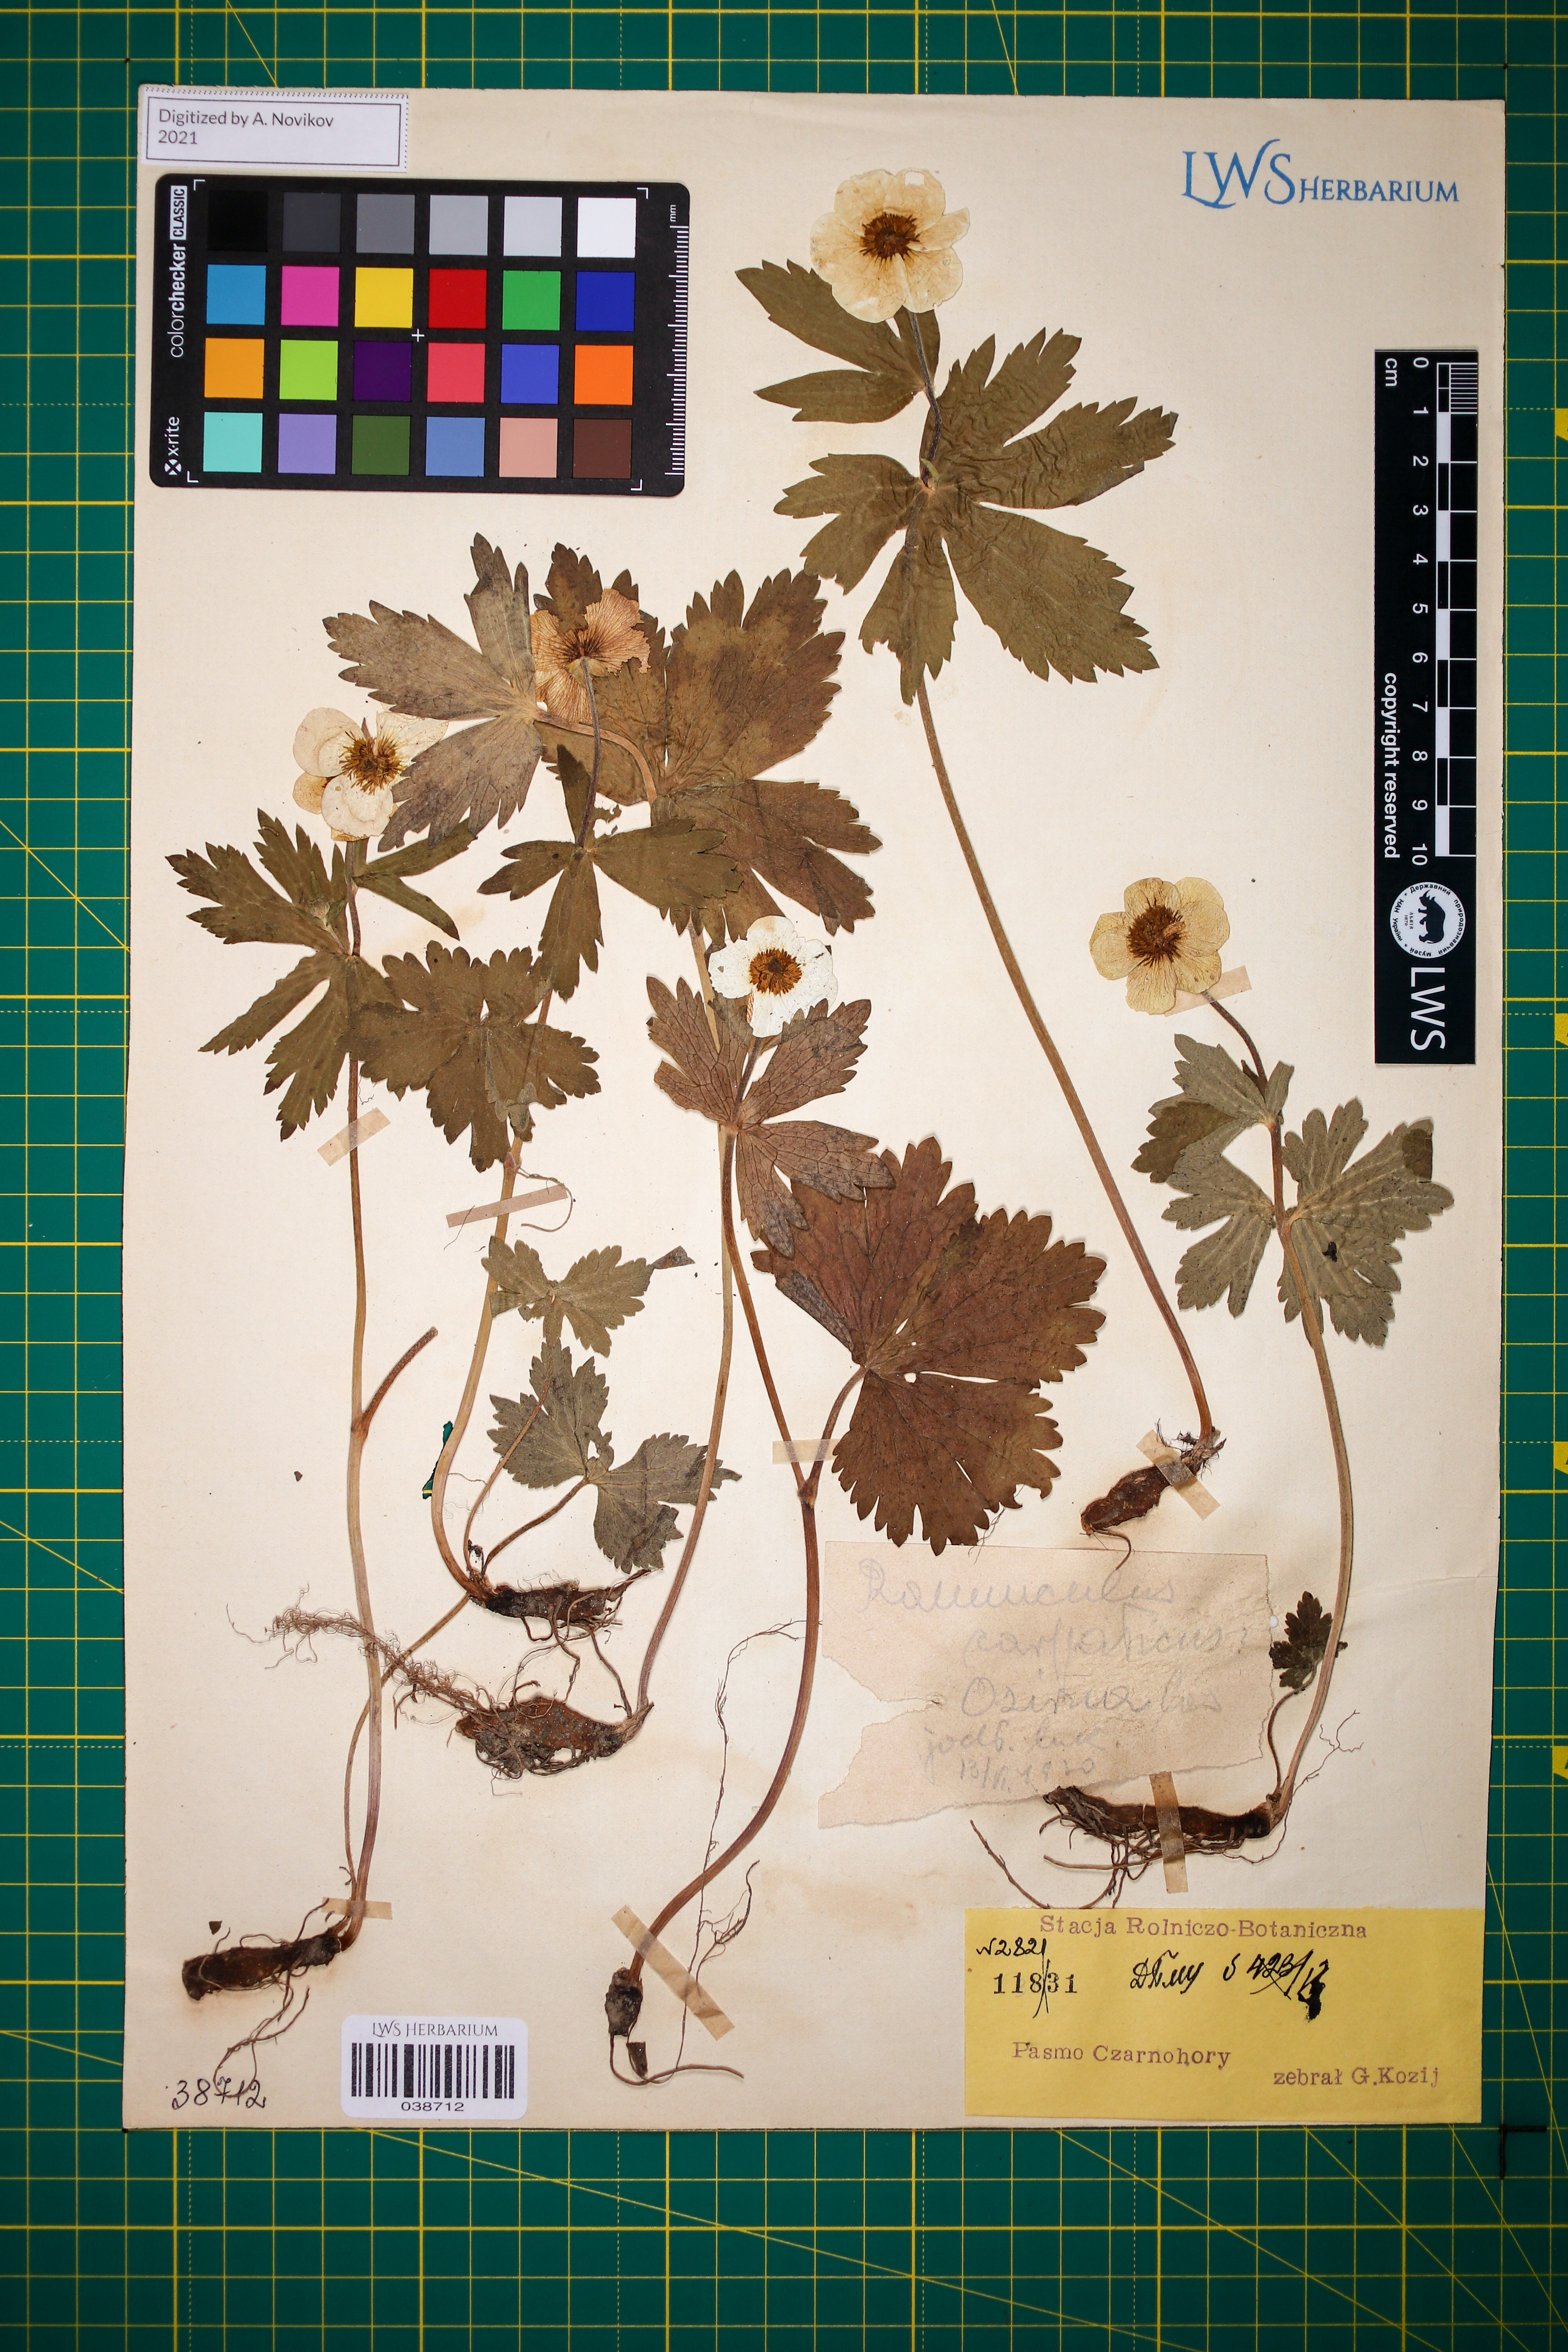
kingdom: Plantae
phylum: Tracheophyta
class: Magnoliopsida
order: Ranunculales
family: Ranunculaceae
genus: Ranunculus
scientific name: Ranunculus carpaticus
